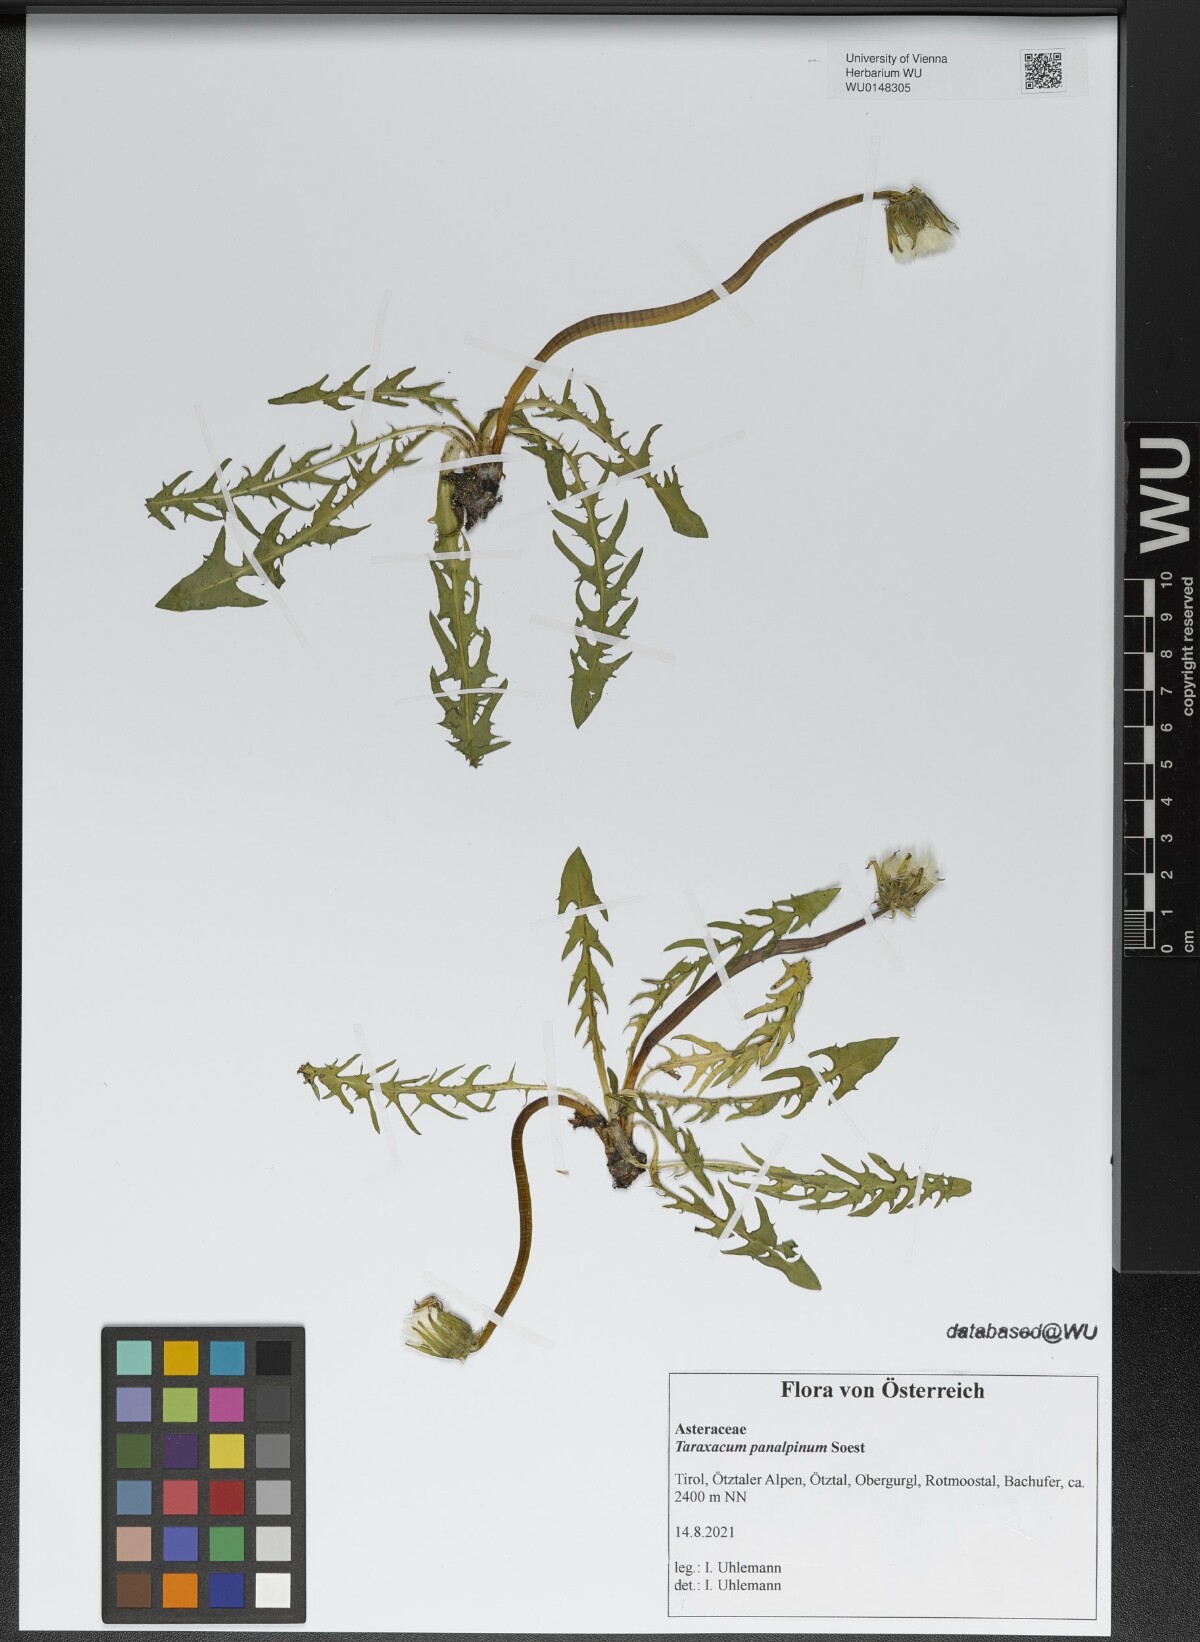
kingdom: Plantae
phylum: Tracheophyta
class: Magnoliopsida
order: Asterales
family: Asteraceae
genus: Taraxacum
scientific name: Taraxacum panalpinum
